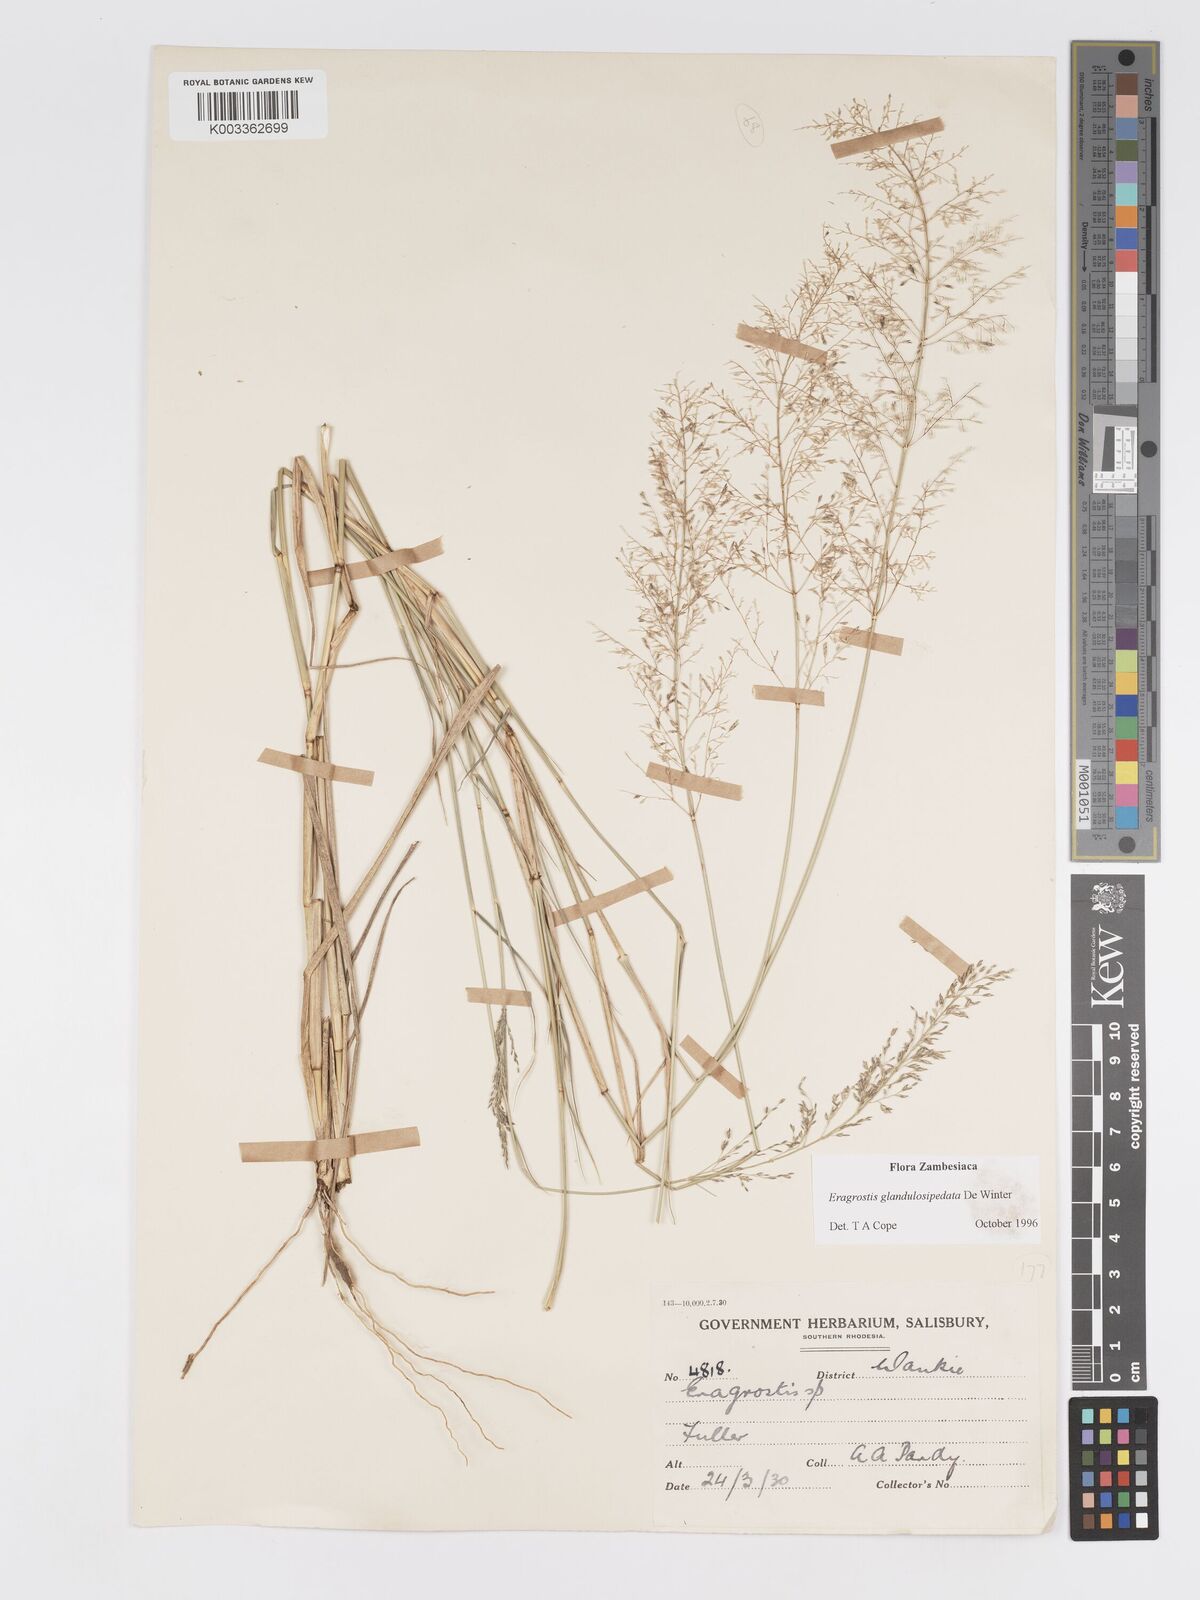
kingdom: Plantae
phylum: Tracheophyta
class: Liliopsida
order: Poales
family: Poaceae
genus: Eragrostis
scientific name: Eragrostis glandulosipedata
